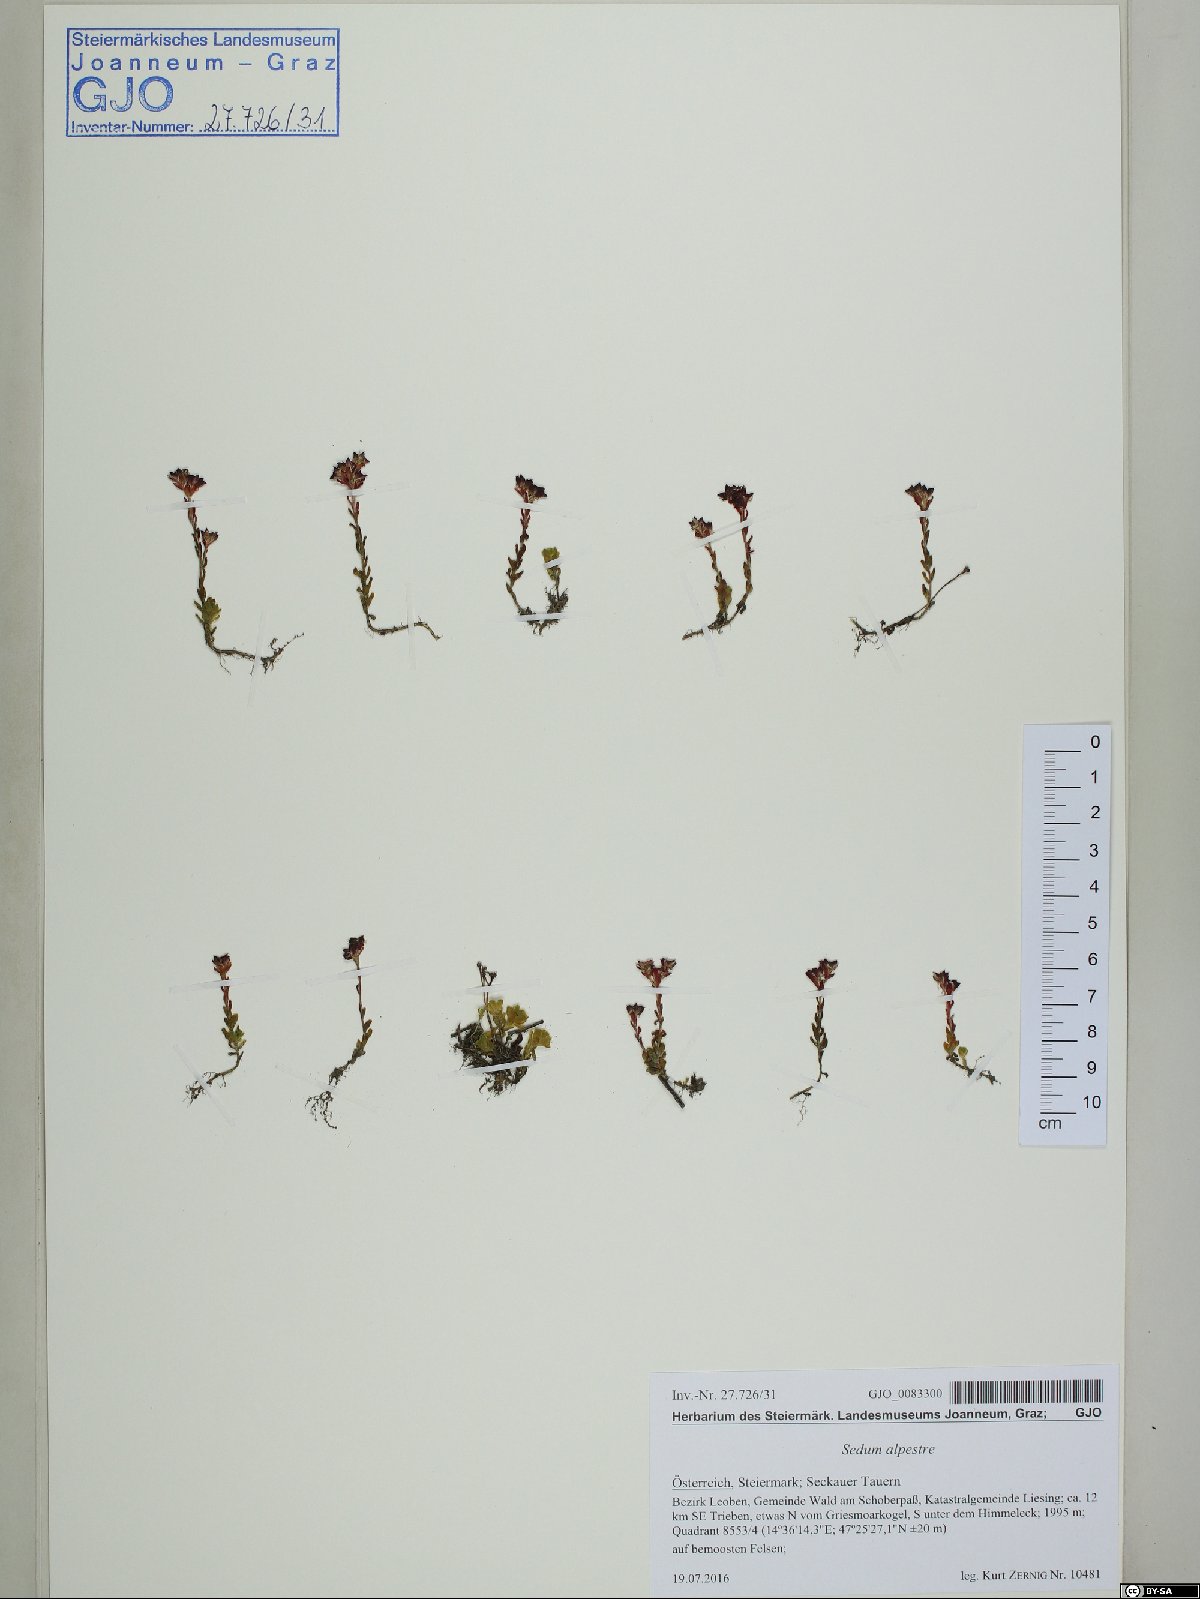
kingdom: Plantae
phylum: Tracheophyta
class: Magnoliopsida
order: Saxifragales
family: Crassulaceae
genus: Sedum
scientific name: Sedum alpestre
